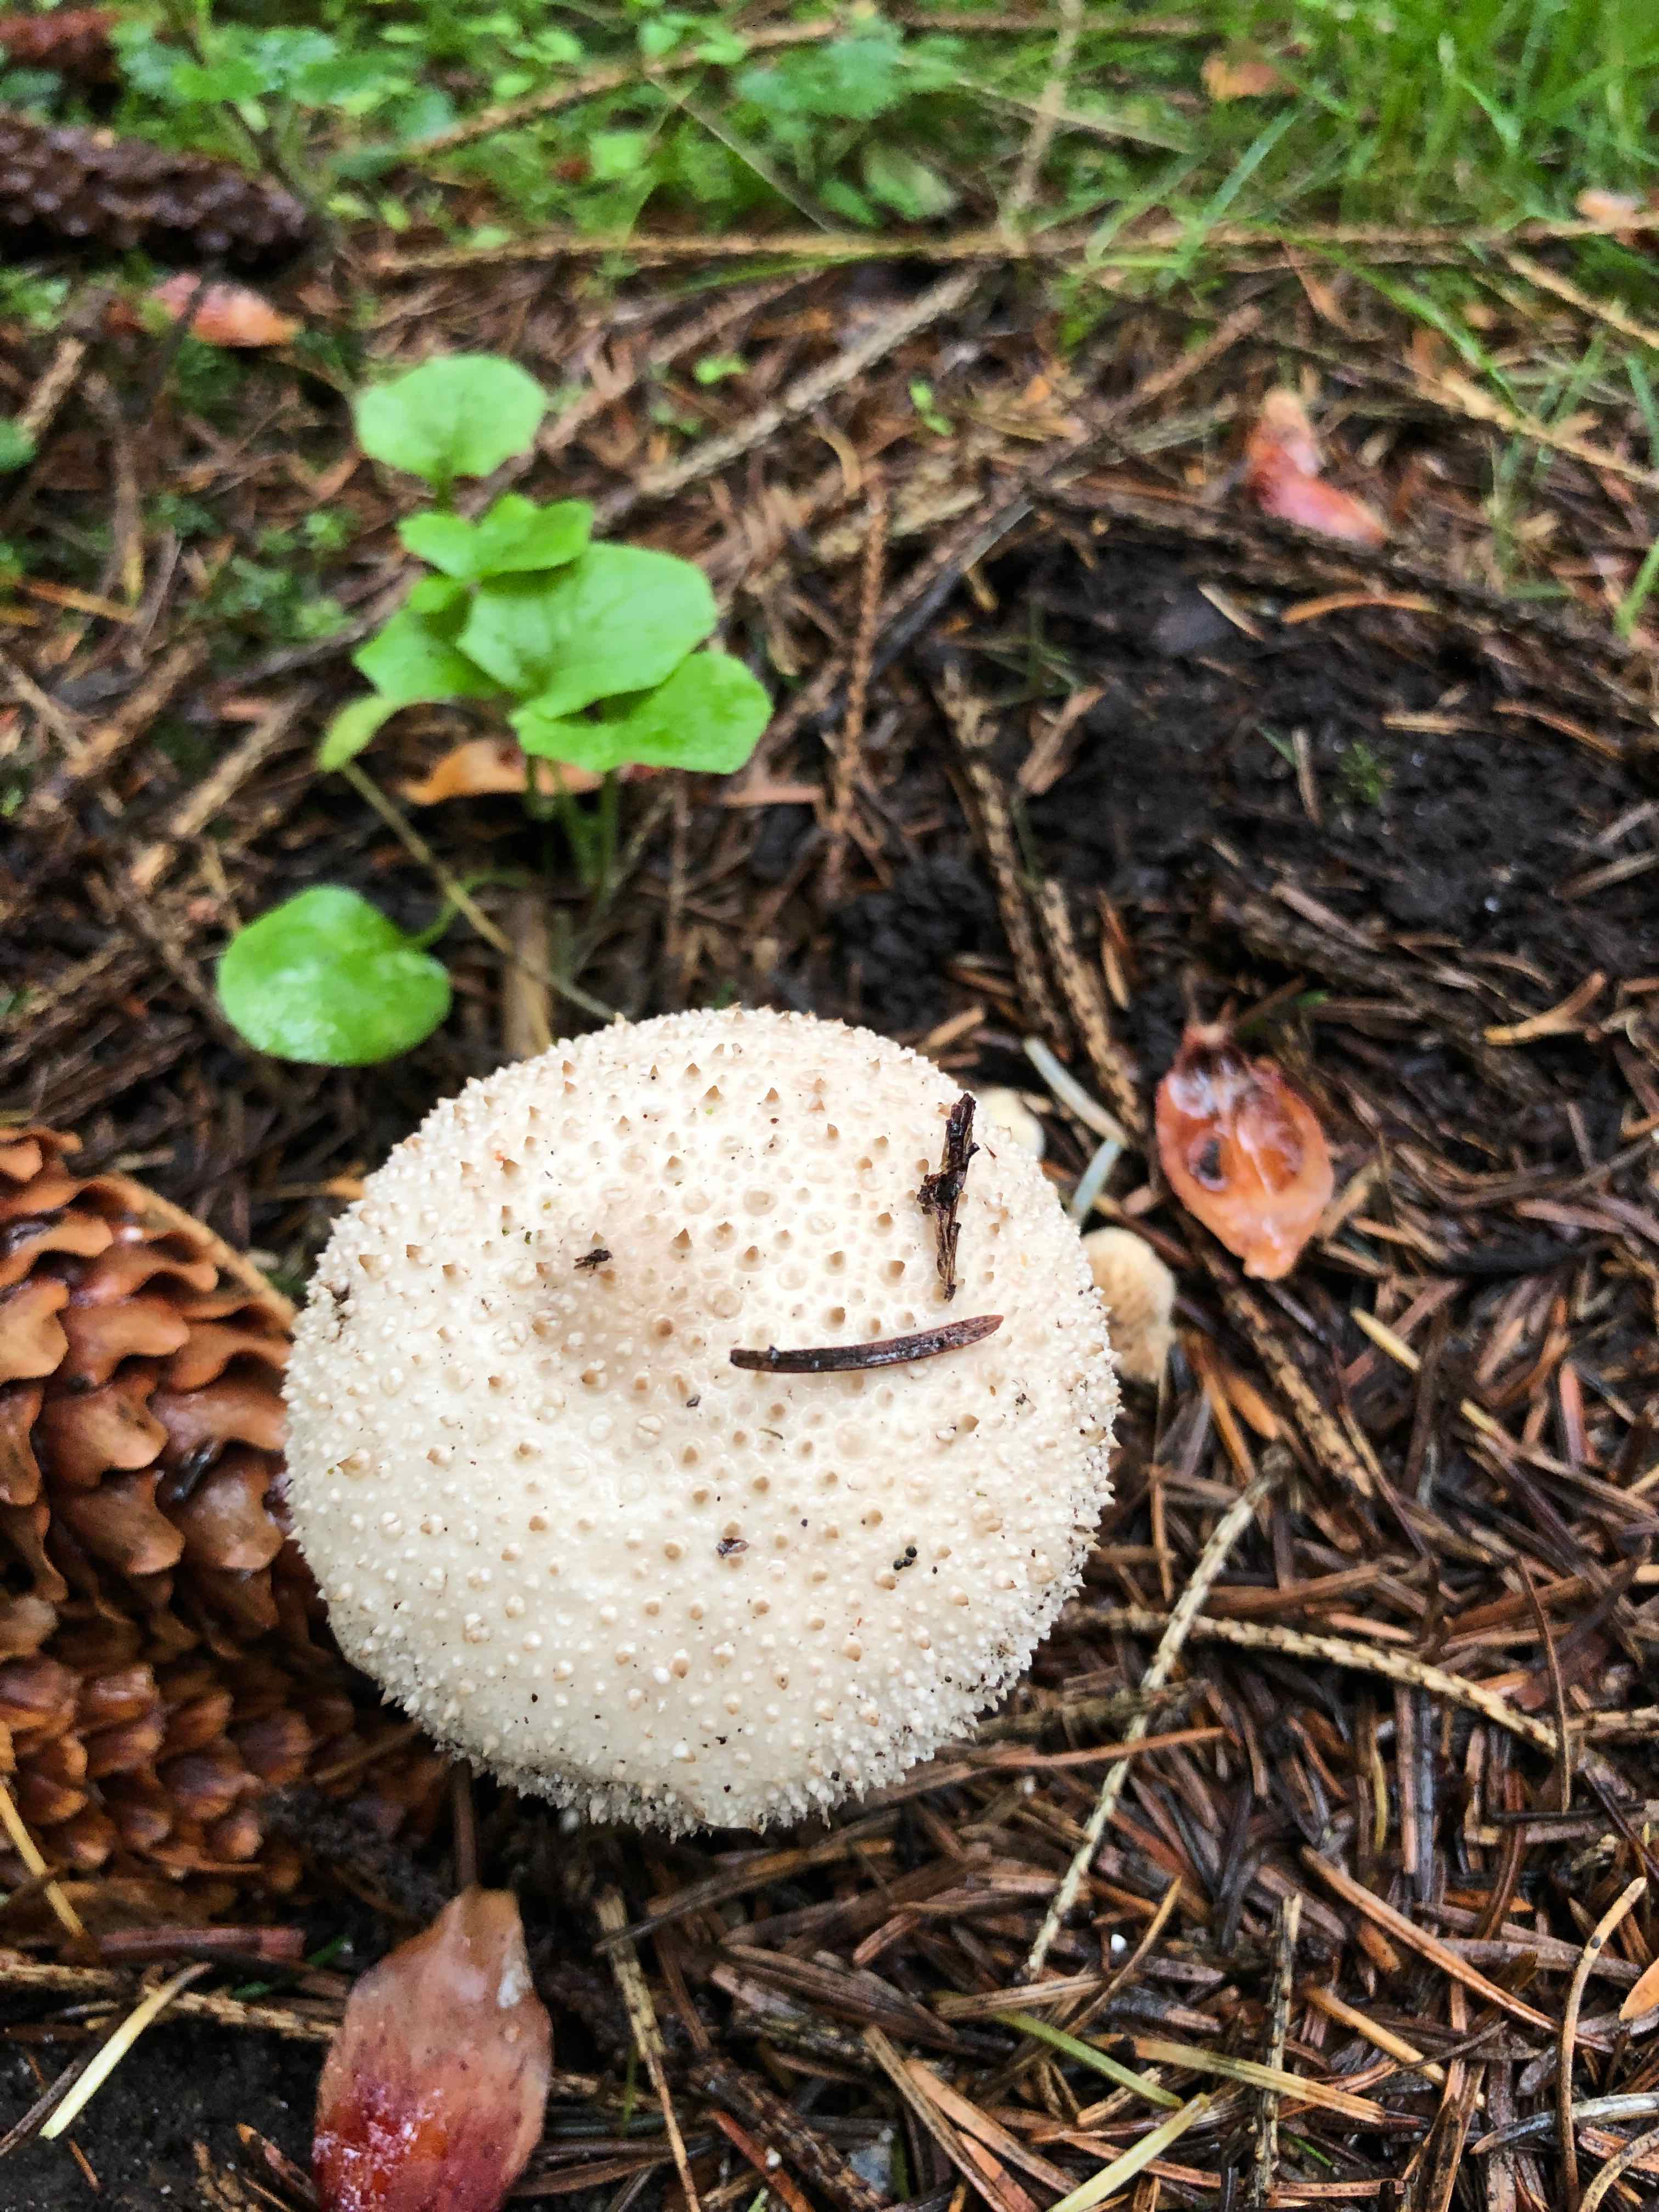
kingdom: Fungi
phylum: Basidiomycota
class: Agaricomycetes
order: Agaricales
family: Lycoperdaceae
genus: Lycoperdon
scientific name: Lycoperdon perlatum
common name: krystal-støvbold
